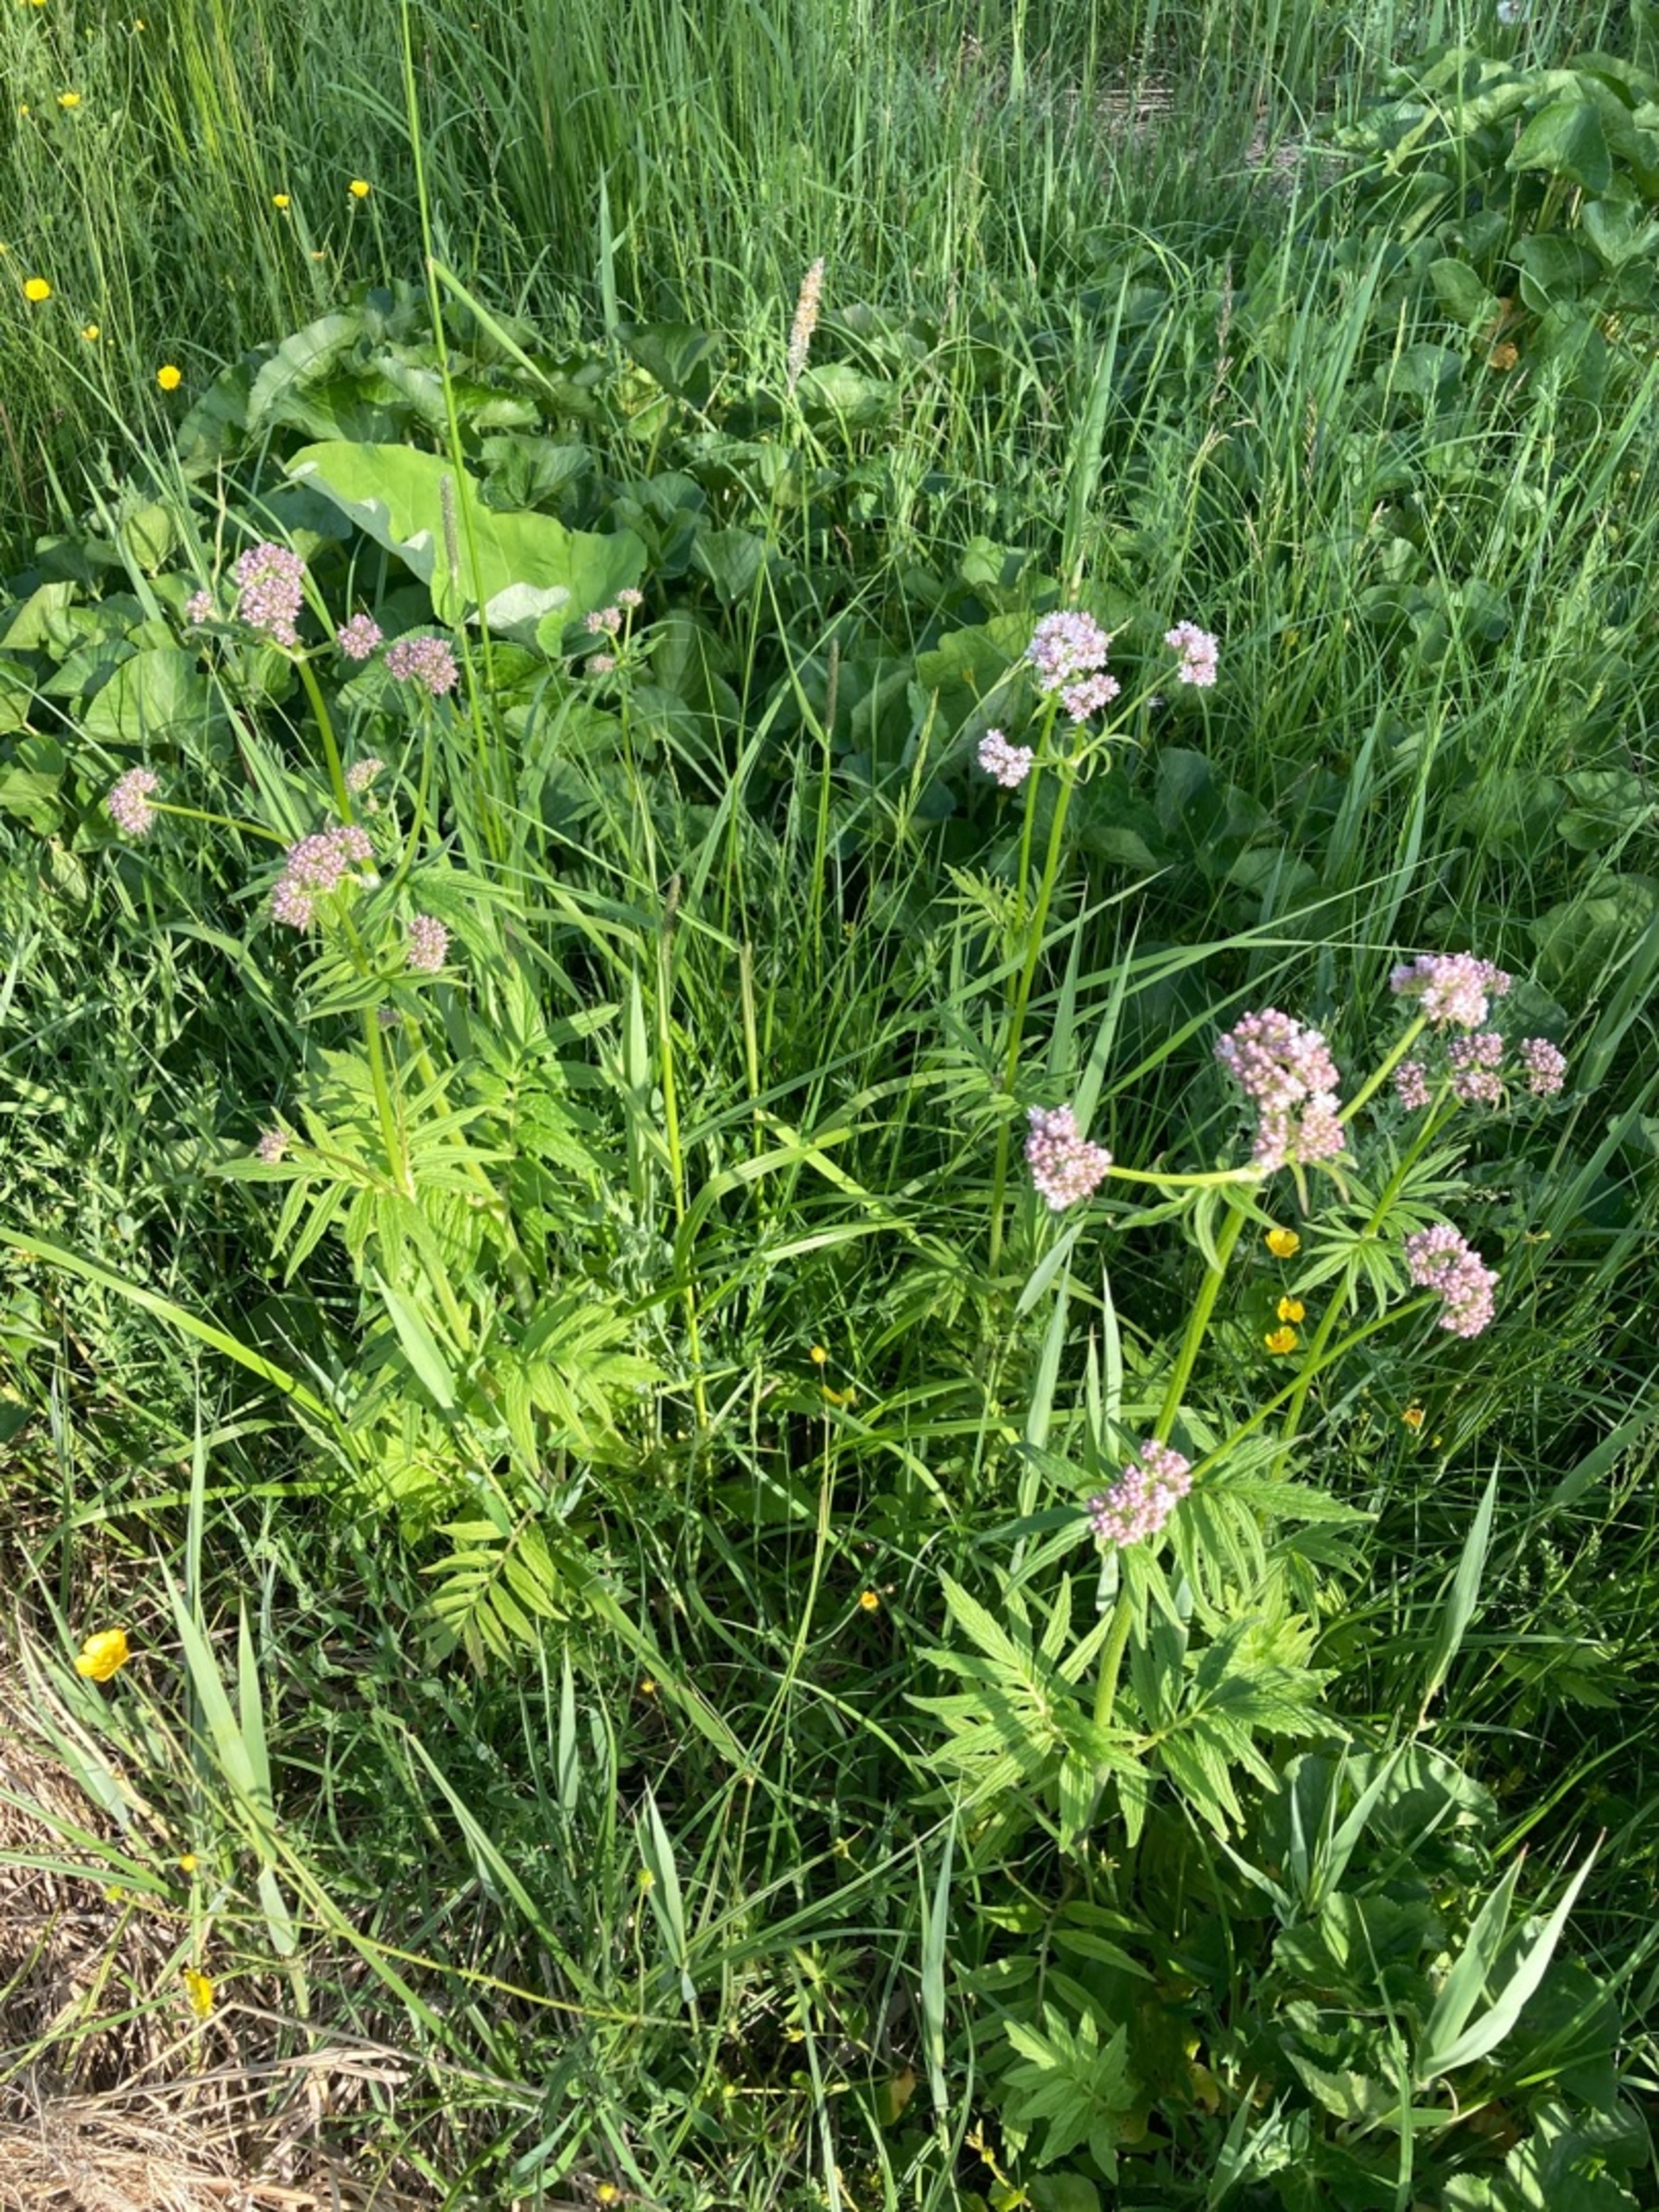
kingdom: Plantae
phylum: Tracheophyta
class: Magnoliopsida
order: Dipsacales
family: Caprifoliaceae
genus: Valeriana
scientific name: Valeriana sambucifolia
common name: Hyldebladet baldrian
